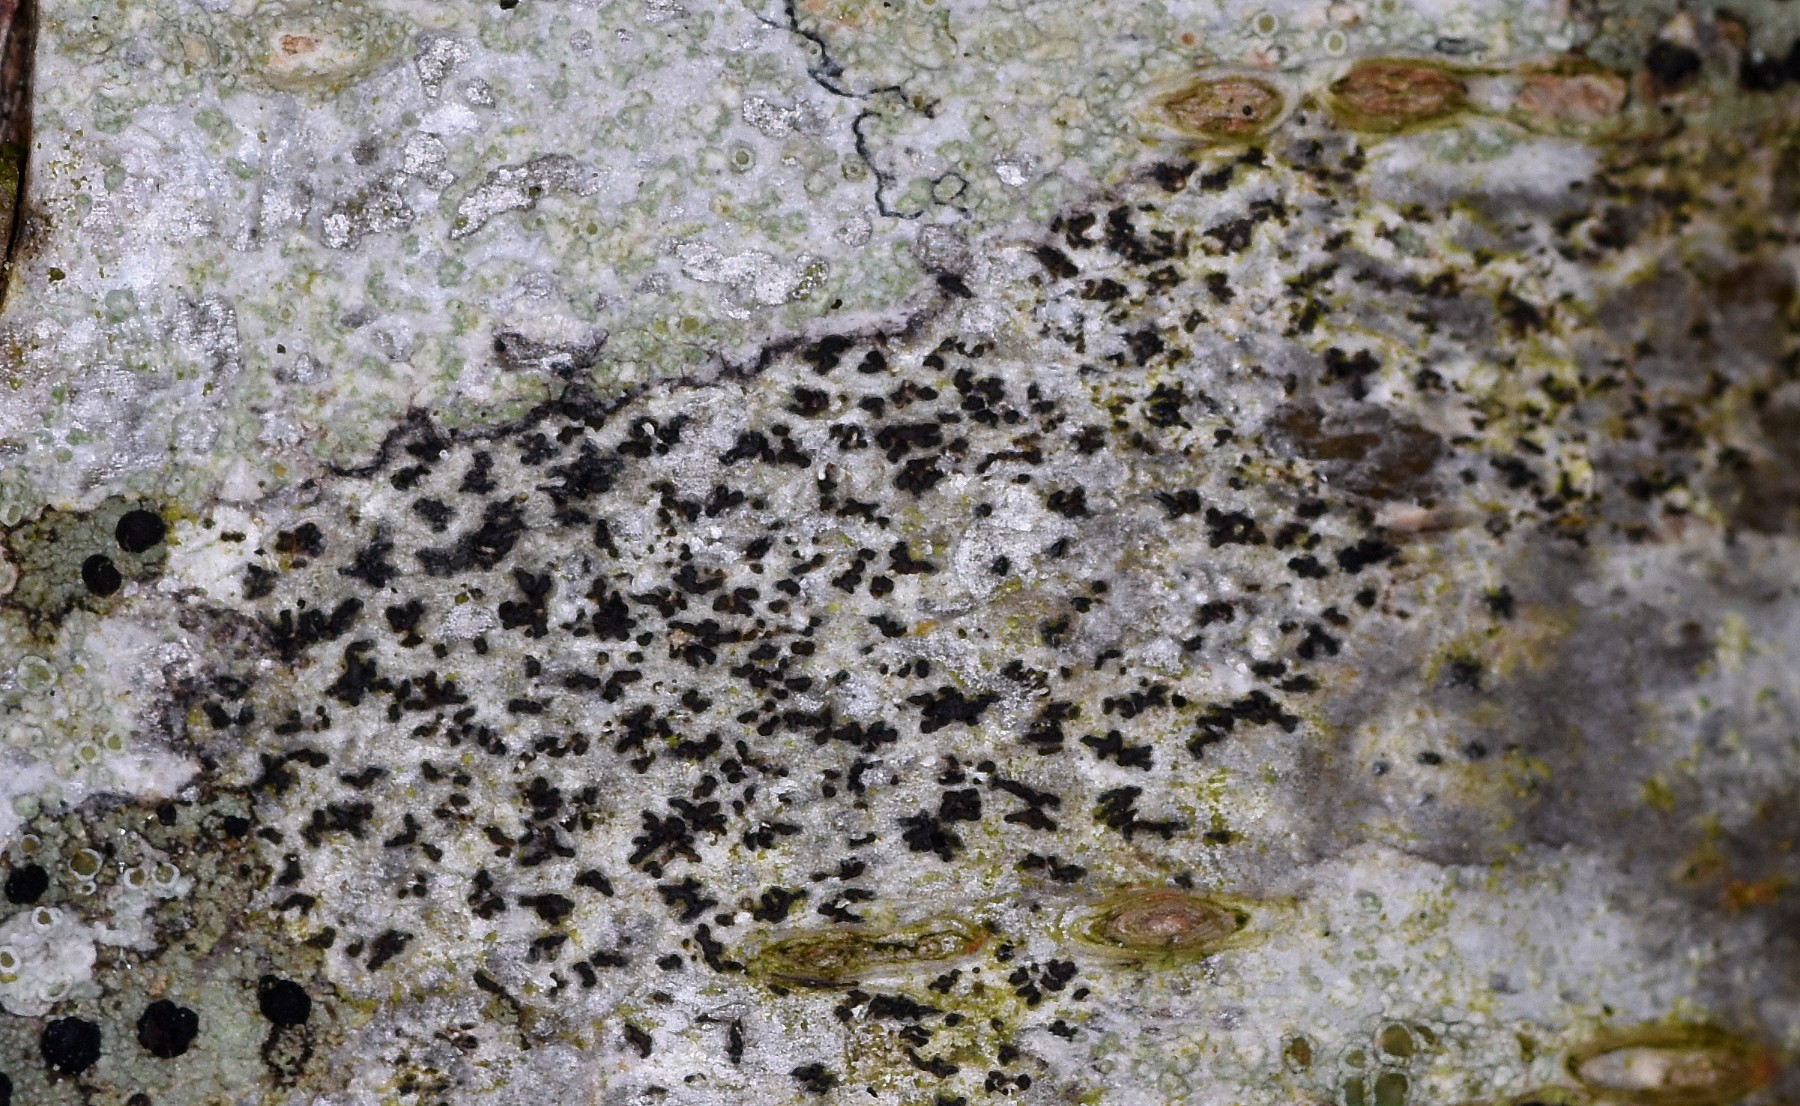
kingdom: Fungi
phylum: Ascomycota
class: Arthoniomycetes
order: Arthoniales
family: Arthoniaceae
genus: Arthonia
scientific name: Arthonia radiata
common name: stjerne-pletlav
